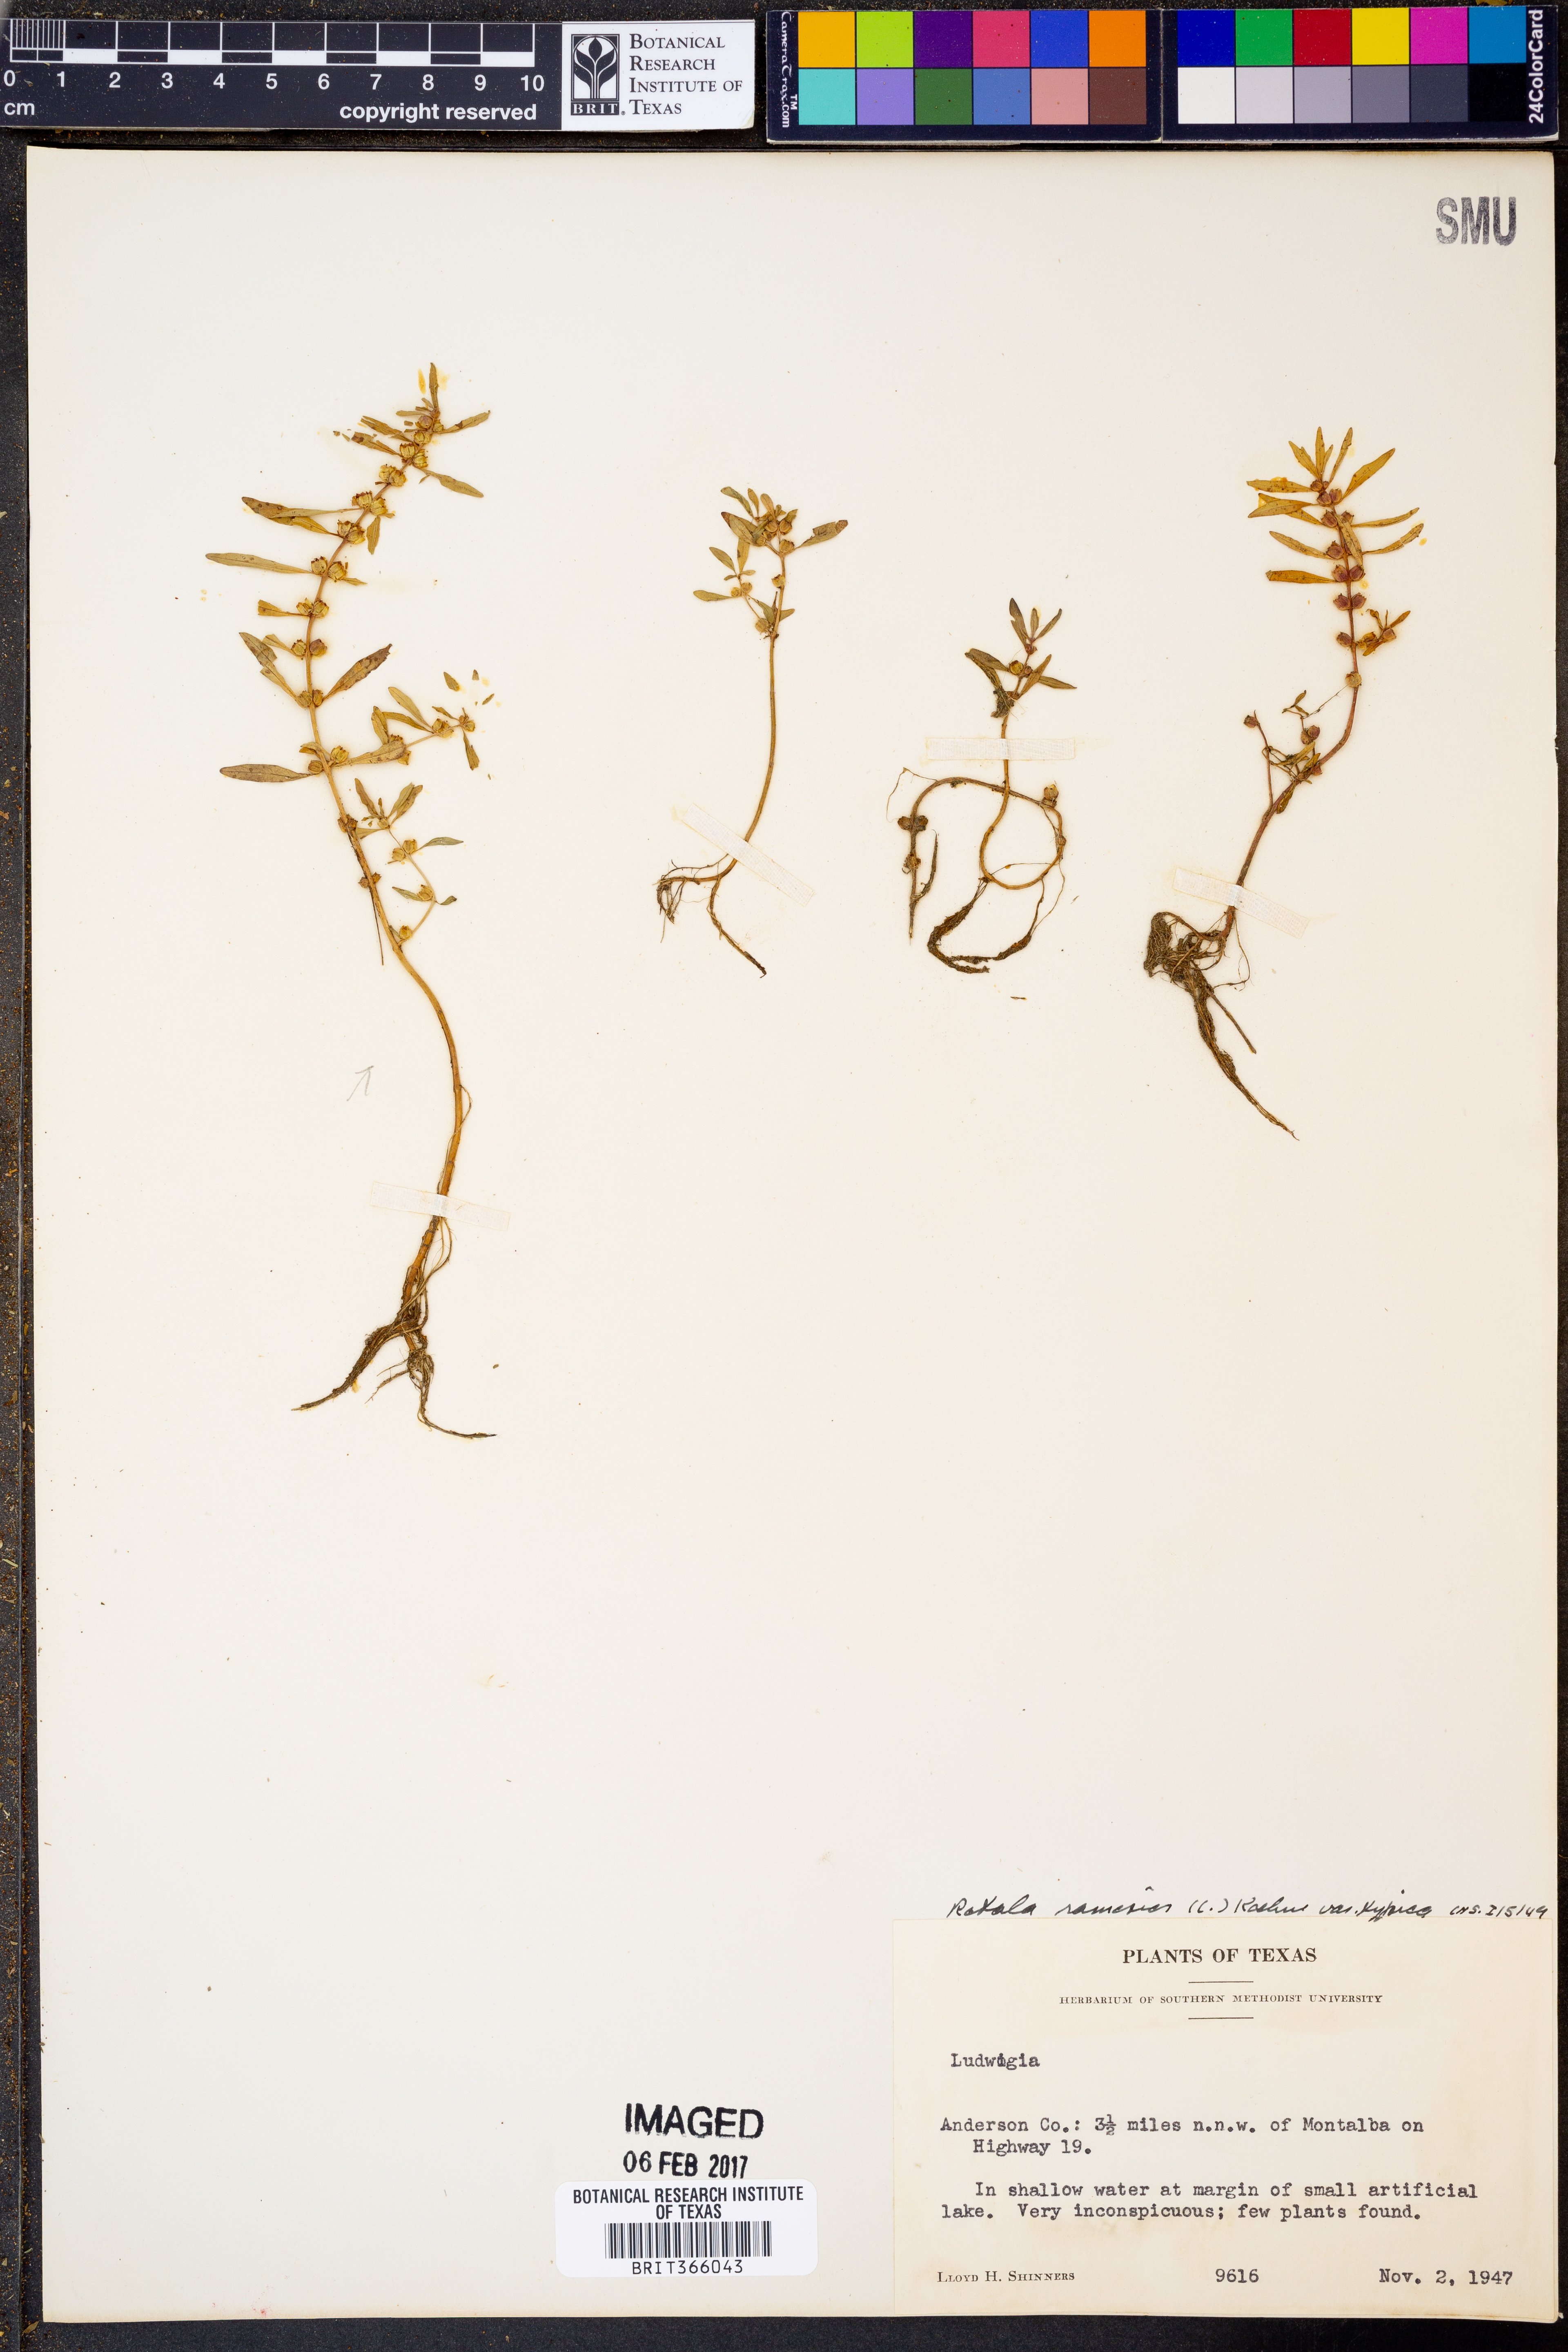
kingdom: Plantae
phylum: Tracheophyta
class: Magnoliopsida
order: Myrtales
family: Lythraceae
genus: Rotala
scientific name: Rotala ramosior
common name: Lowland rotala
